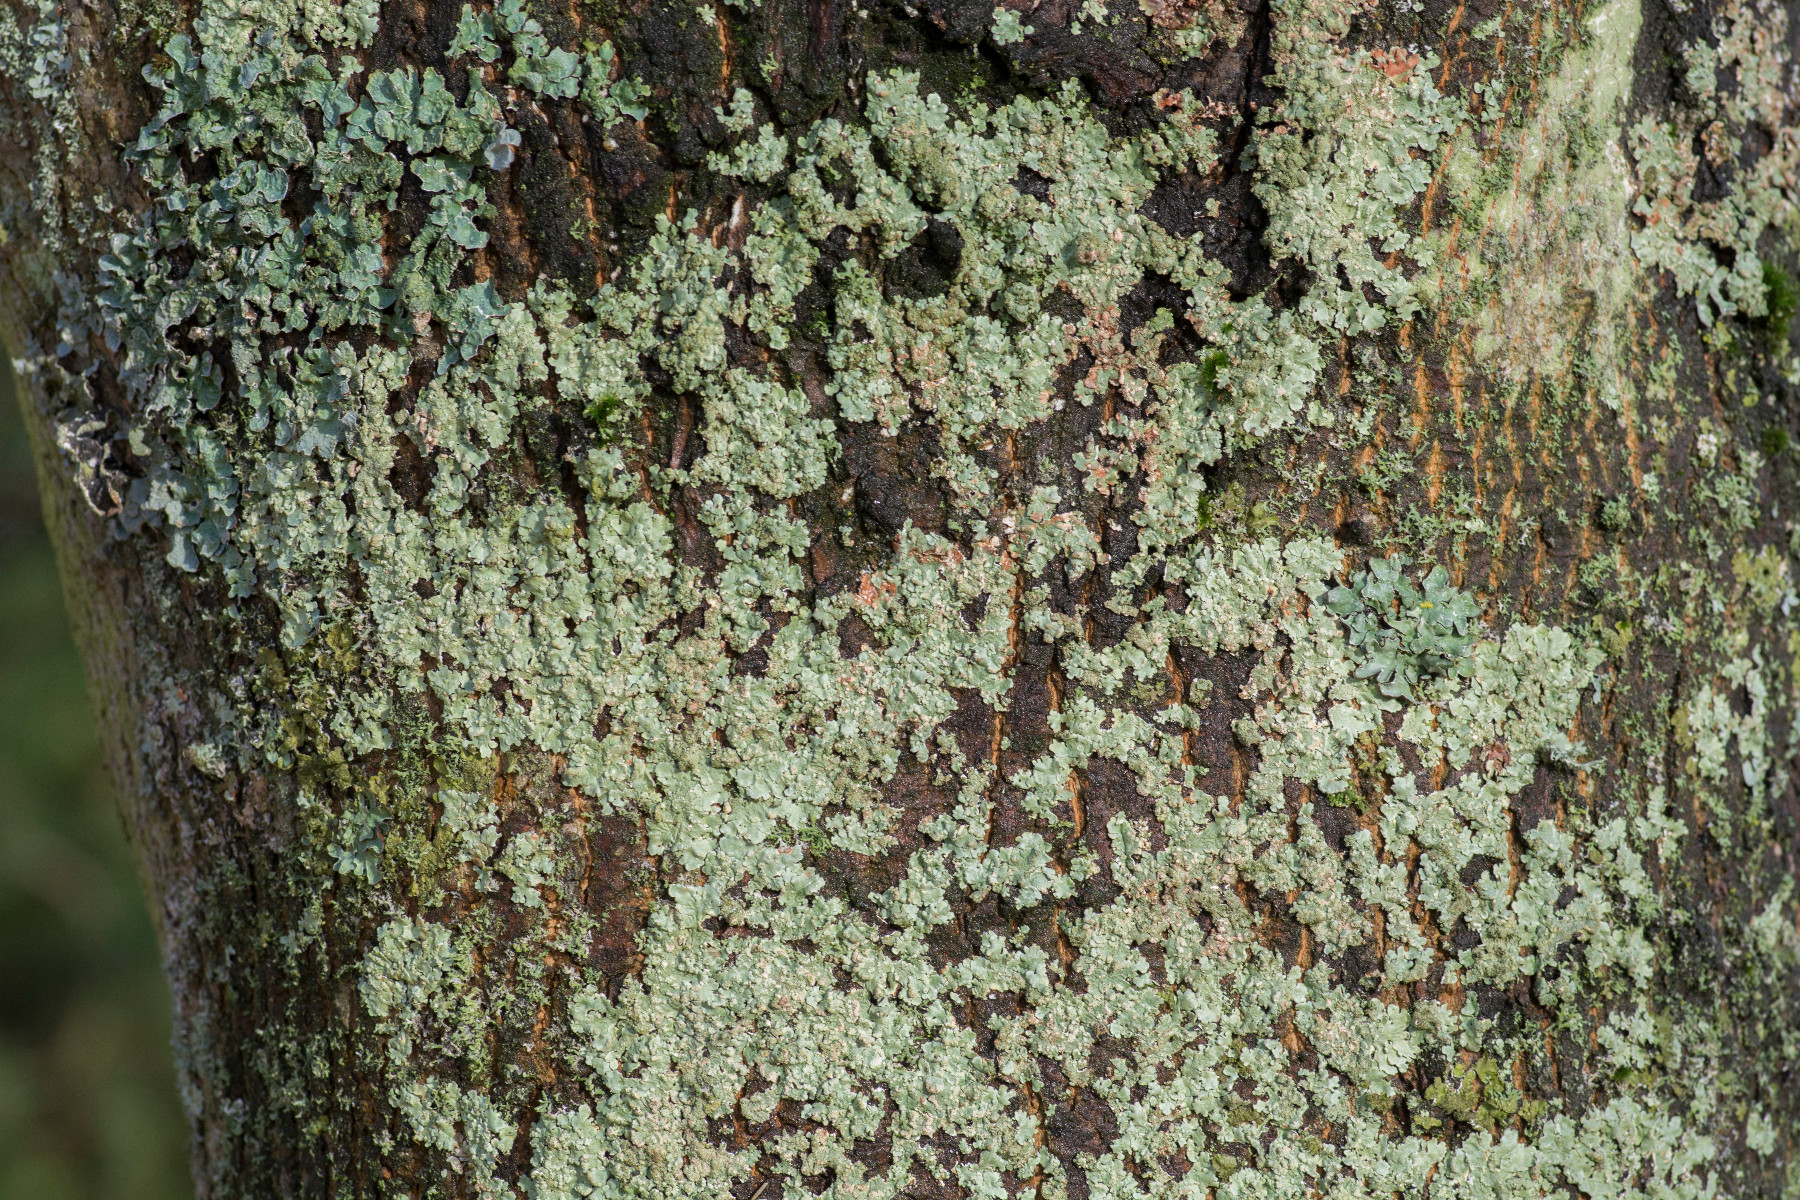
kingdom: Fungi
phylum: Ascomycota
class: Lecanoromycetes
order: Lecanorales
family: Parmeliaceae
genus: Flavoparmelia
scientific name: Flavoparmelia soredians
